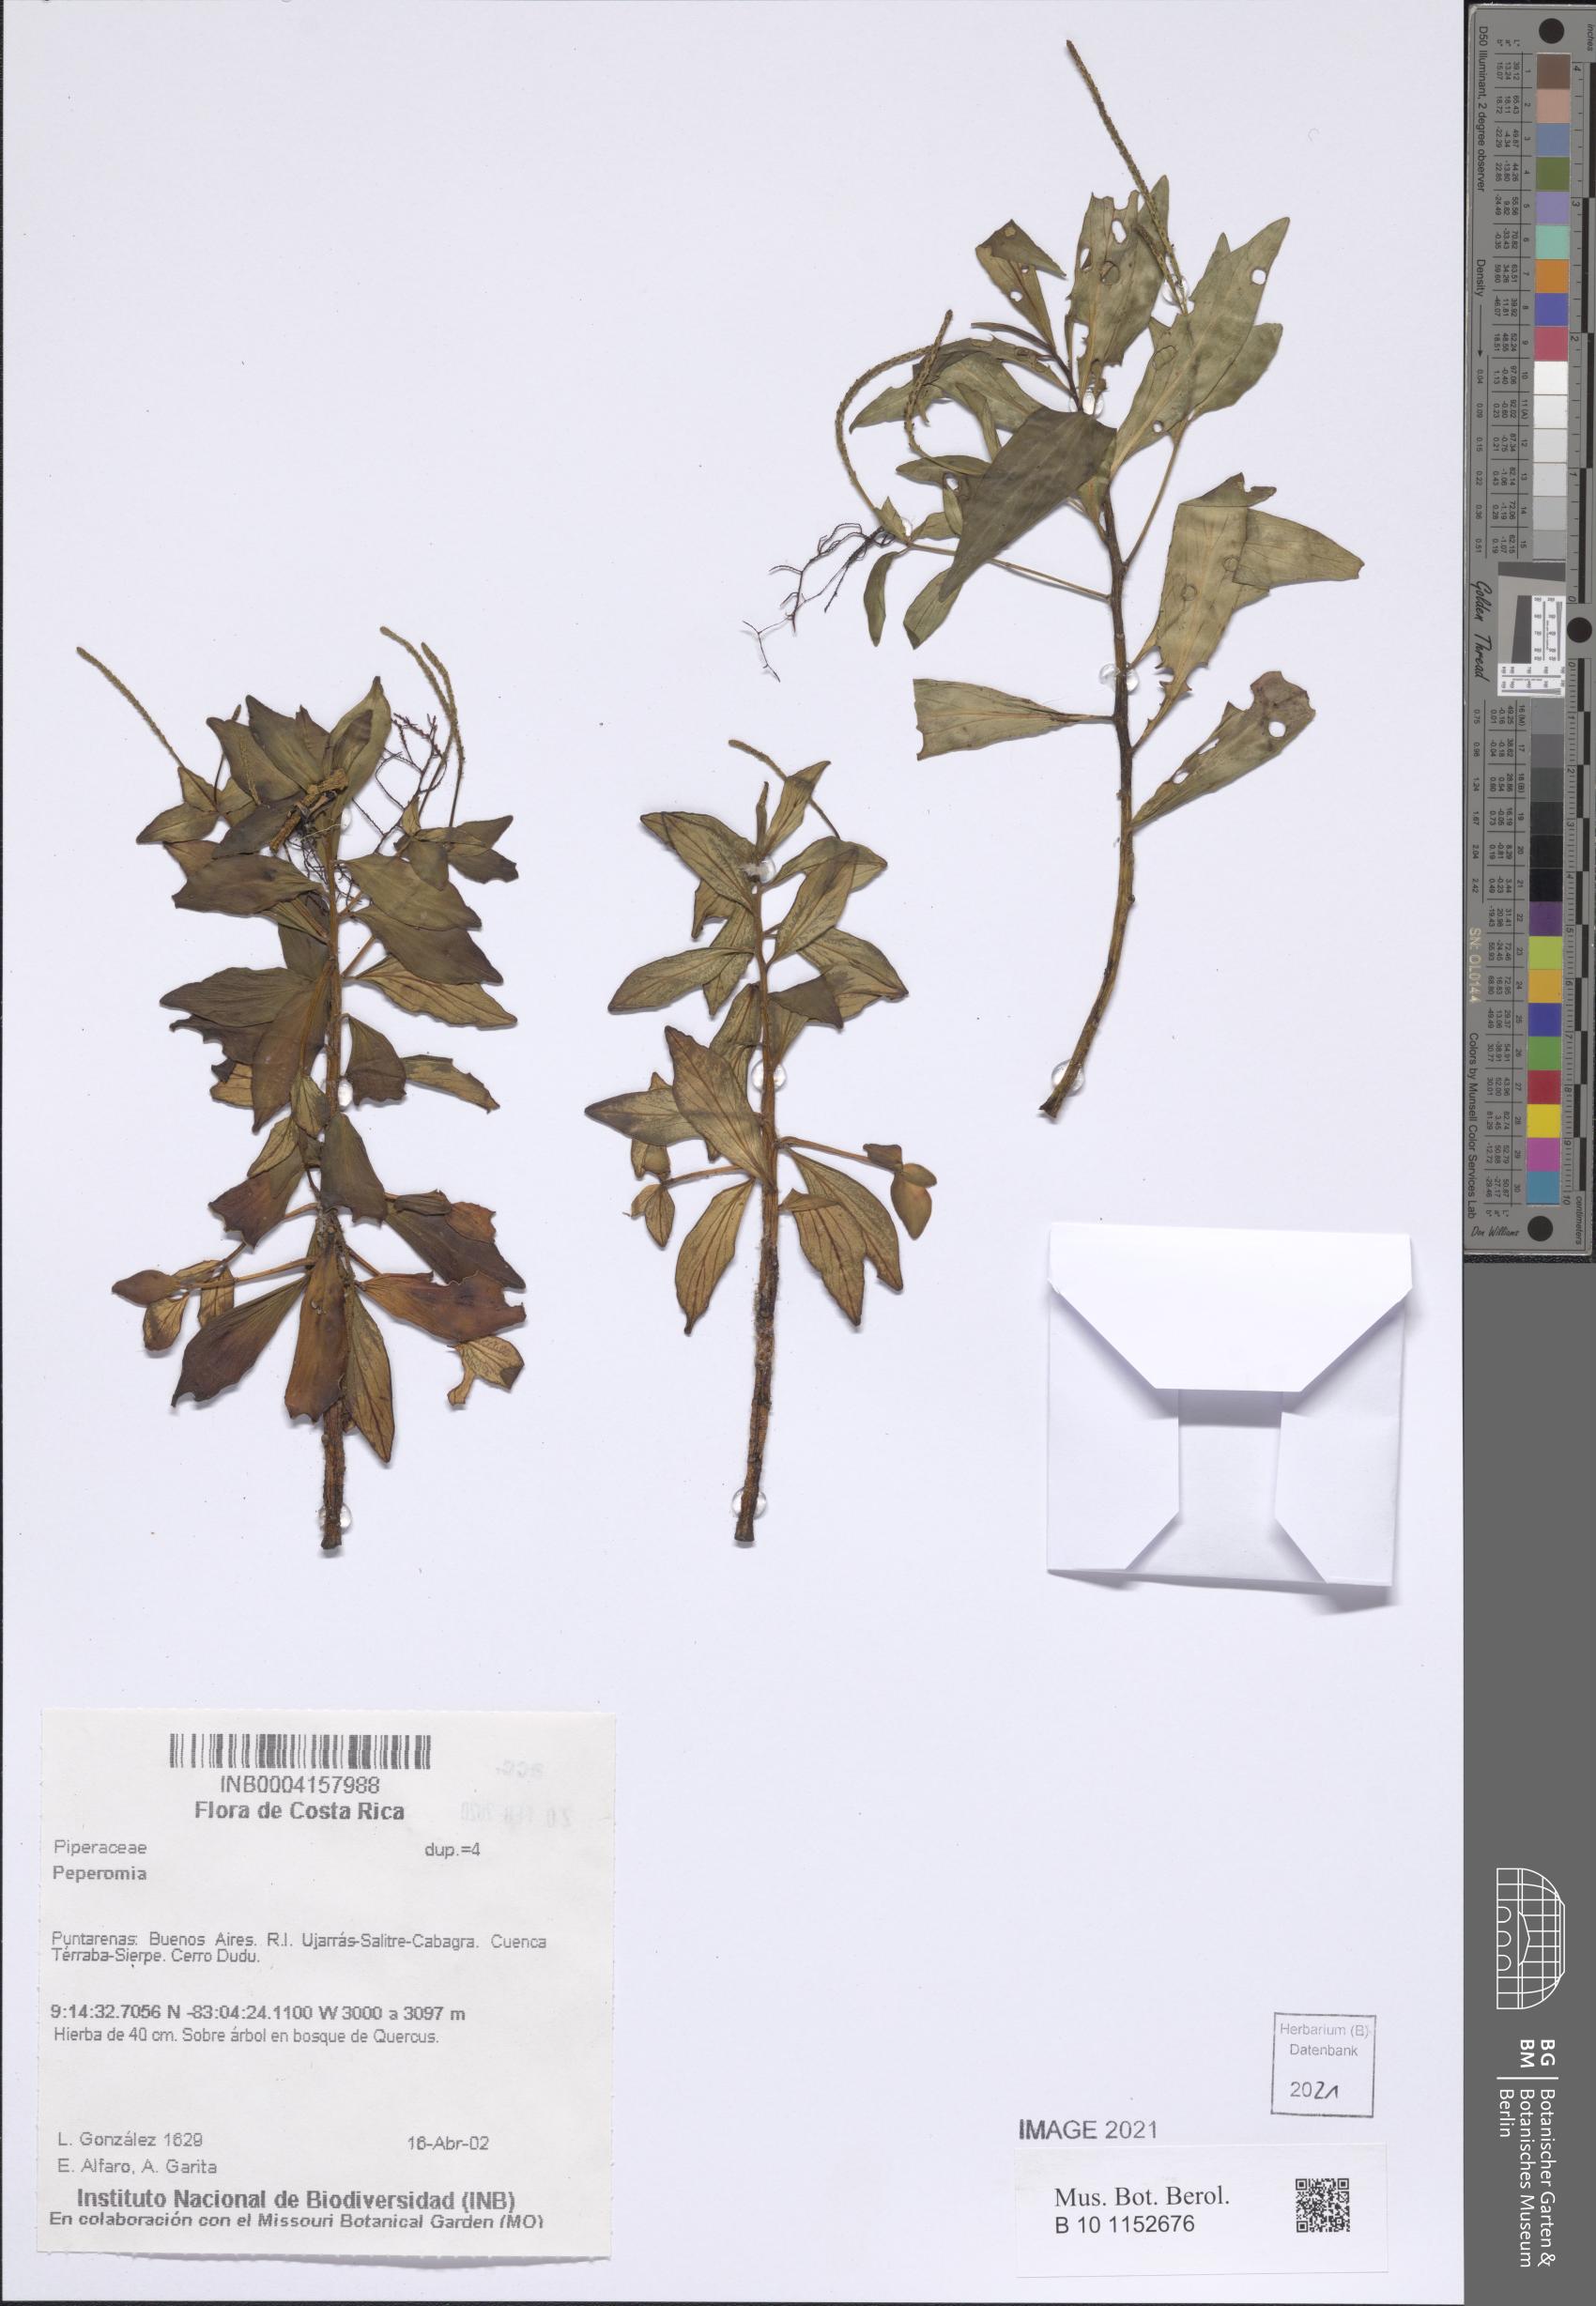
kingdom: Plantae
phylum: Tracheophyta
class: Magnoliopsida
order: Piperales
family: Piperaceae
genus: Peperomia
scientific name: Peperomia
